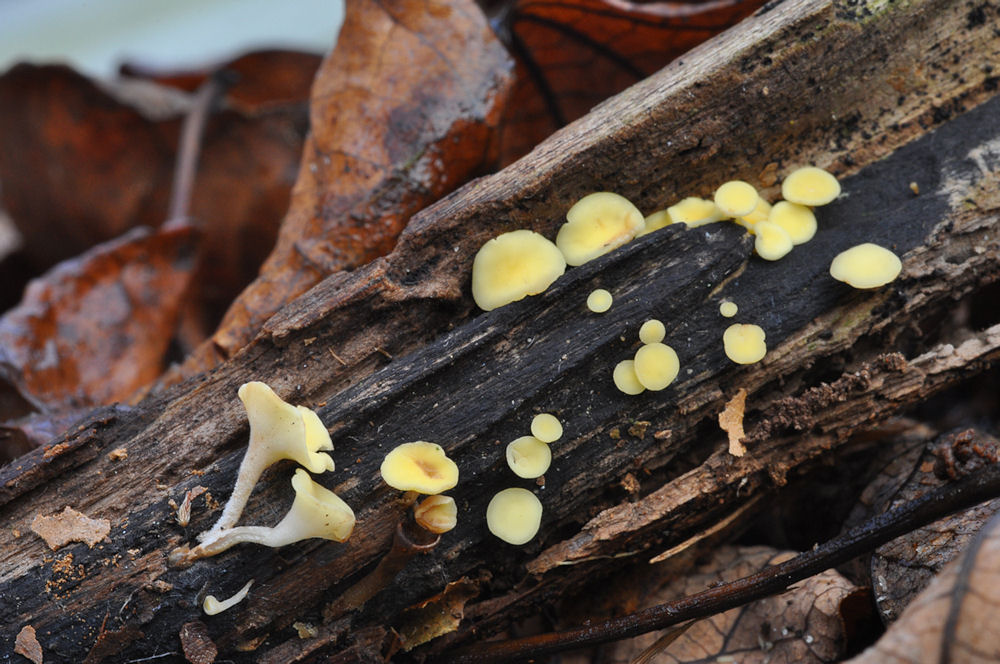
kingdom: Fungi
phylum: Ascomycota
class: Leotiomycetes
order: Helotiales
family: Helotiaceae
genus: Hymenoscyphus
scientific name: Hymenoscyphus serotinus
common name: krumsporet stilkskive
